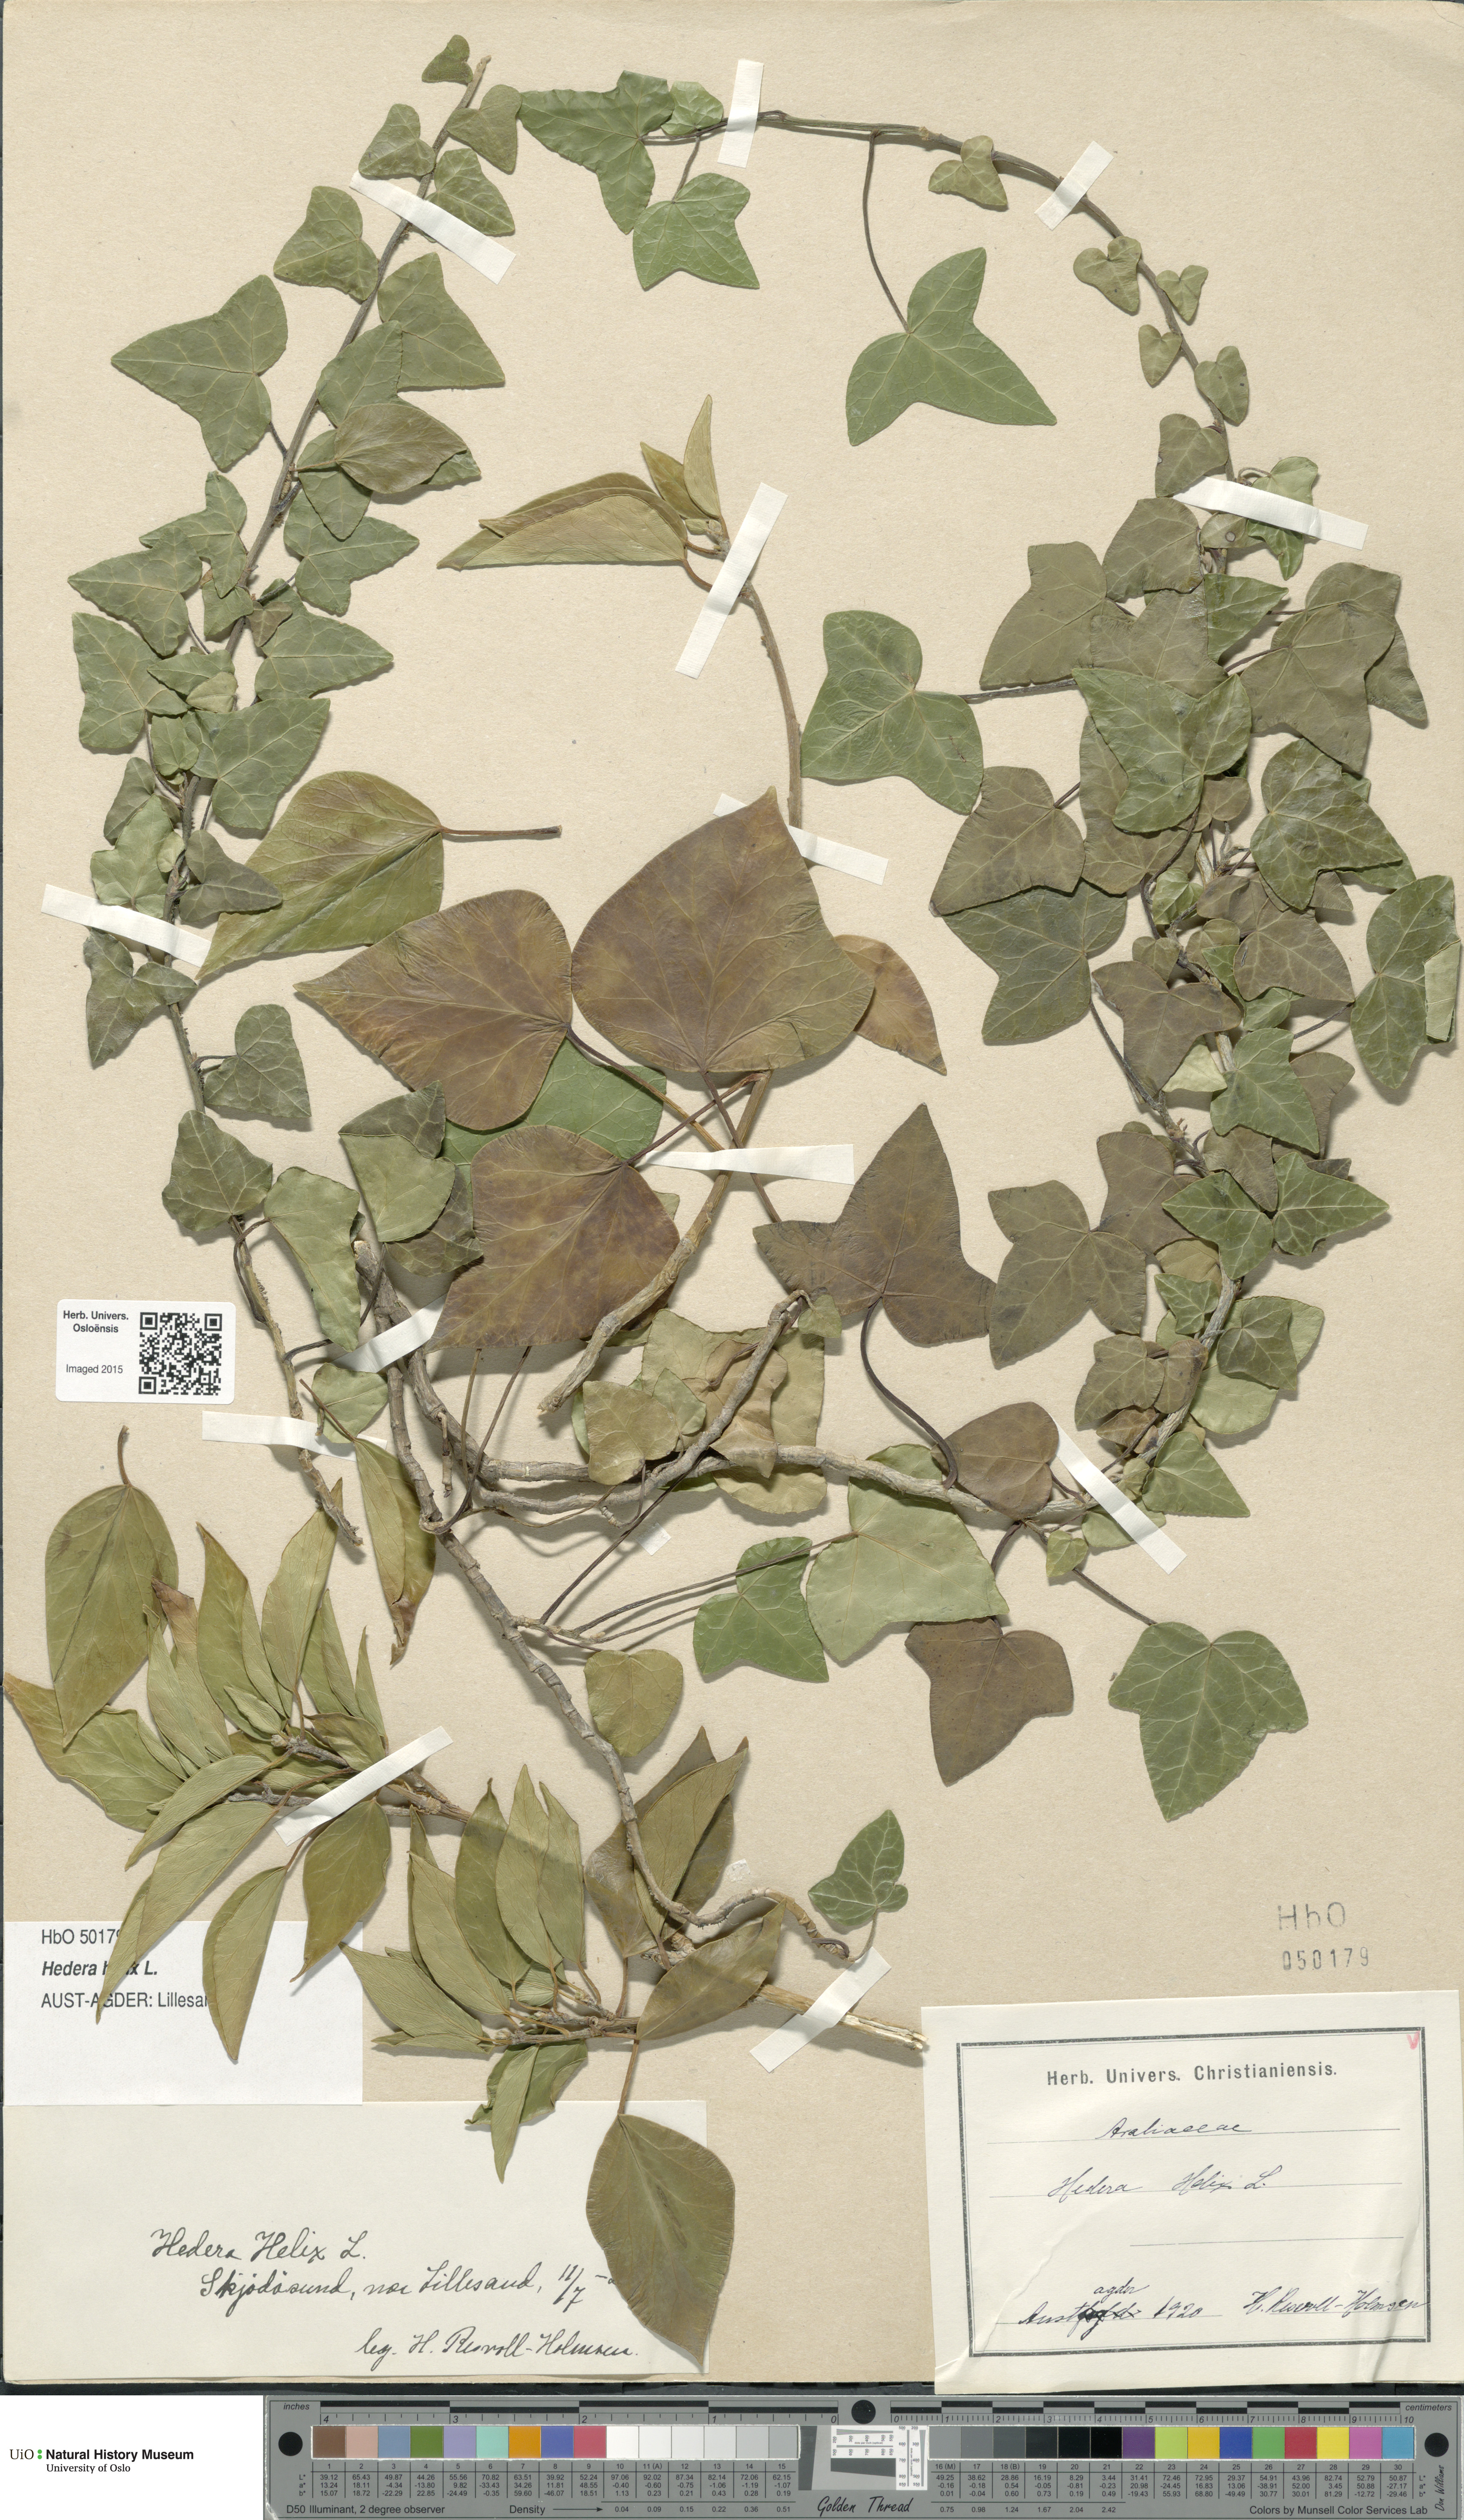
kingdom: Plantae
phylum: Tracheophyta
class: Magnoliopsida
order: Apiales
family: Araliaceae
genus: Hedera
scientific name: Hedera helix
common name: Ivy
